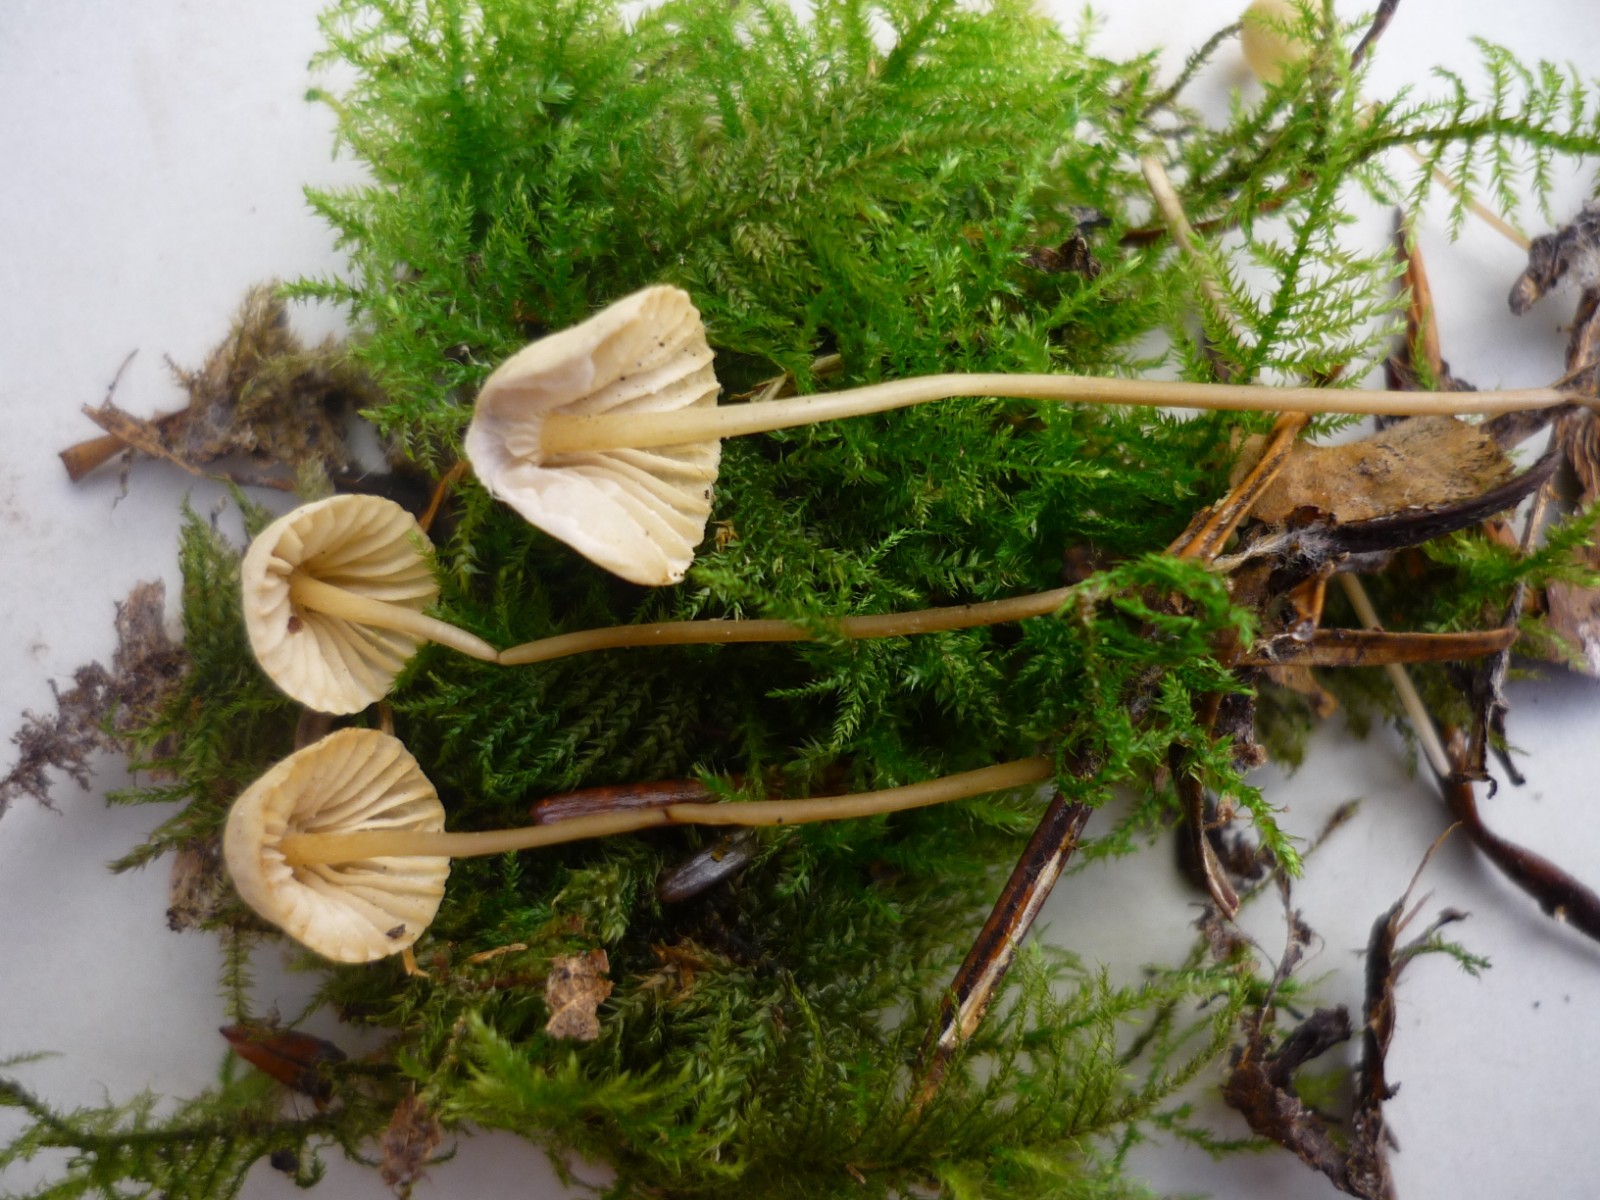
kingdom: Fungi
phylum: Basidiomycota
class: Agaricomycetes
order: Agaricales
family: Mycenaceae
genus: Mycena
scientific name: Mycena citrinomarginata
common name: gulægget huesvamp
